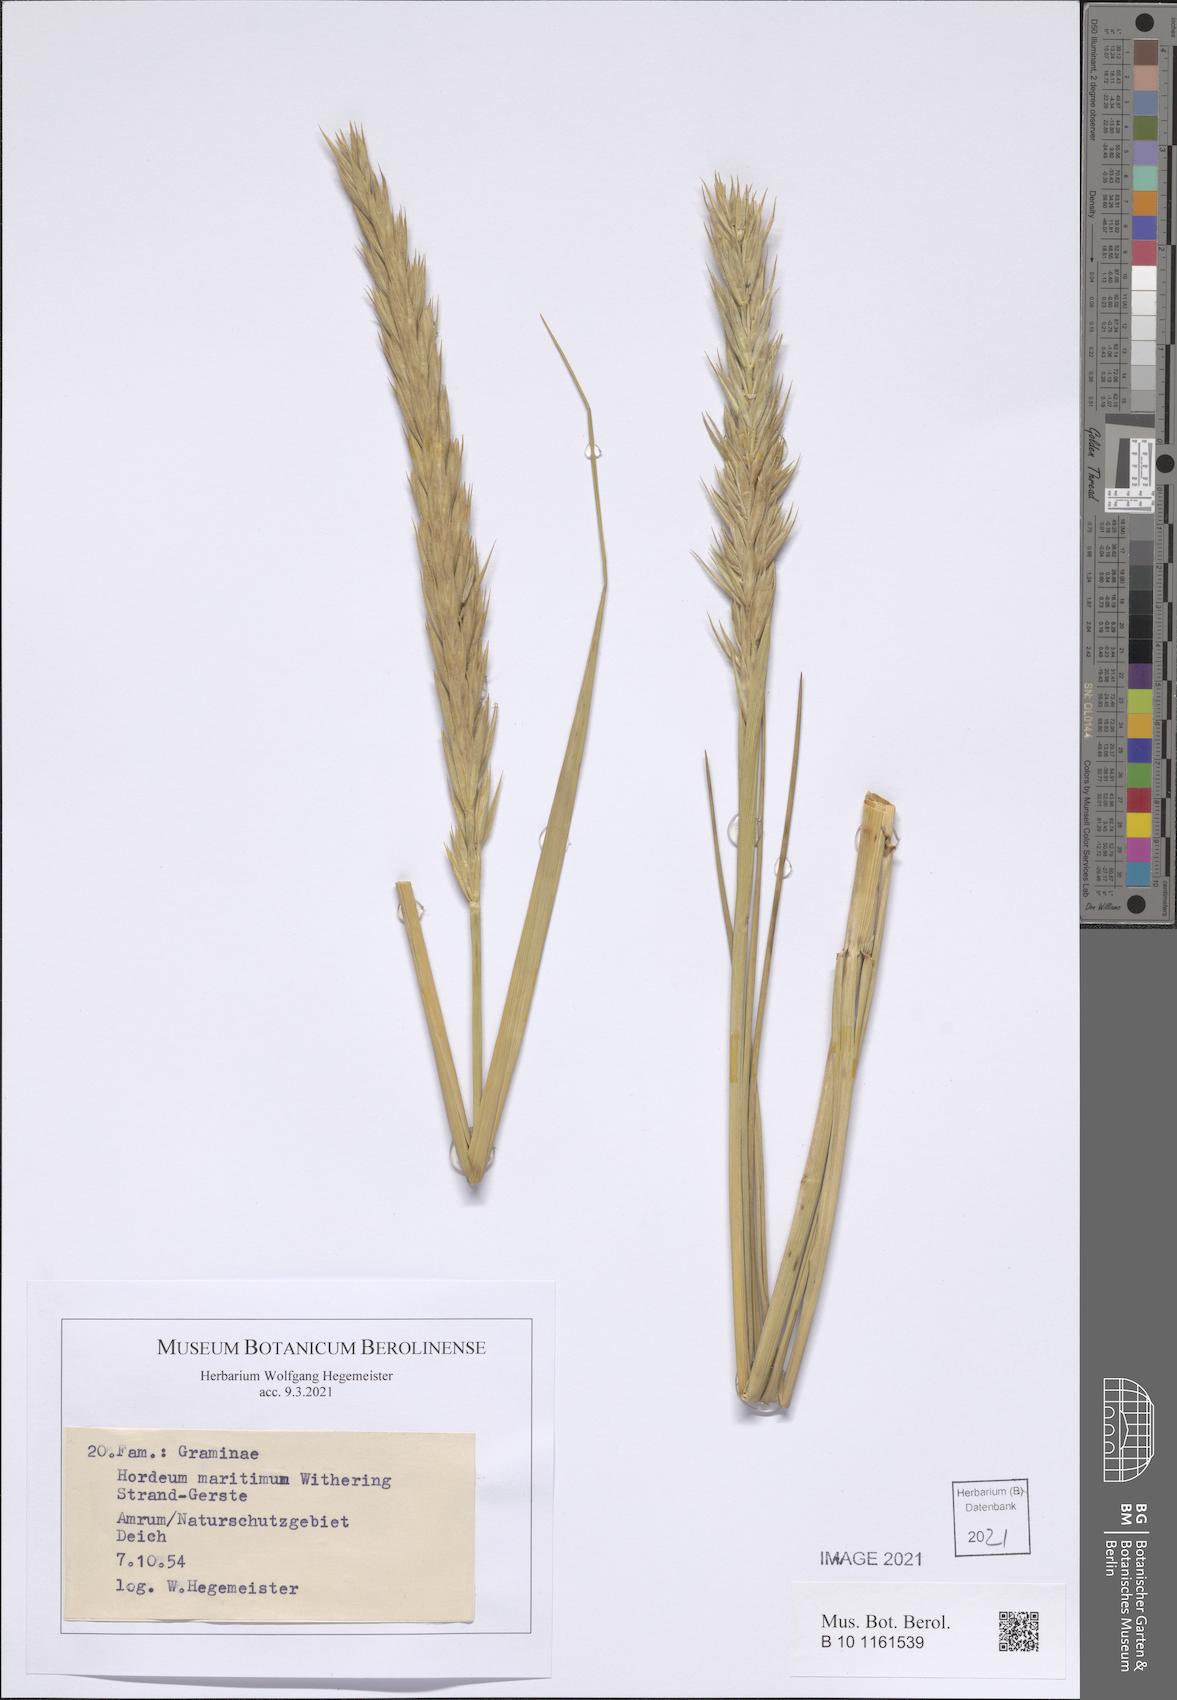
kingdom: Plantae
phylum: Tracheophyta
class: Liliopsida
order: Poales
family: Poaceae
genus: Leymus
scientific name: Leymus arenarius
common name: Lyme-grass
